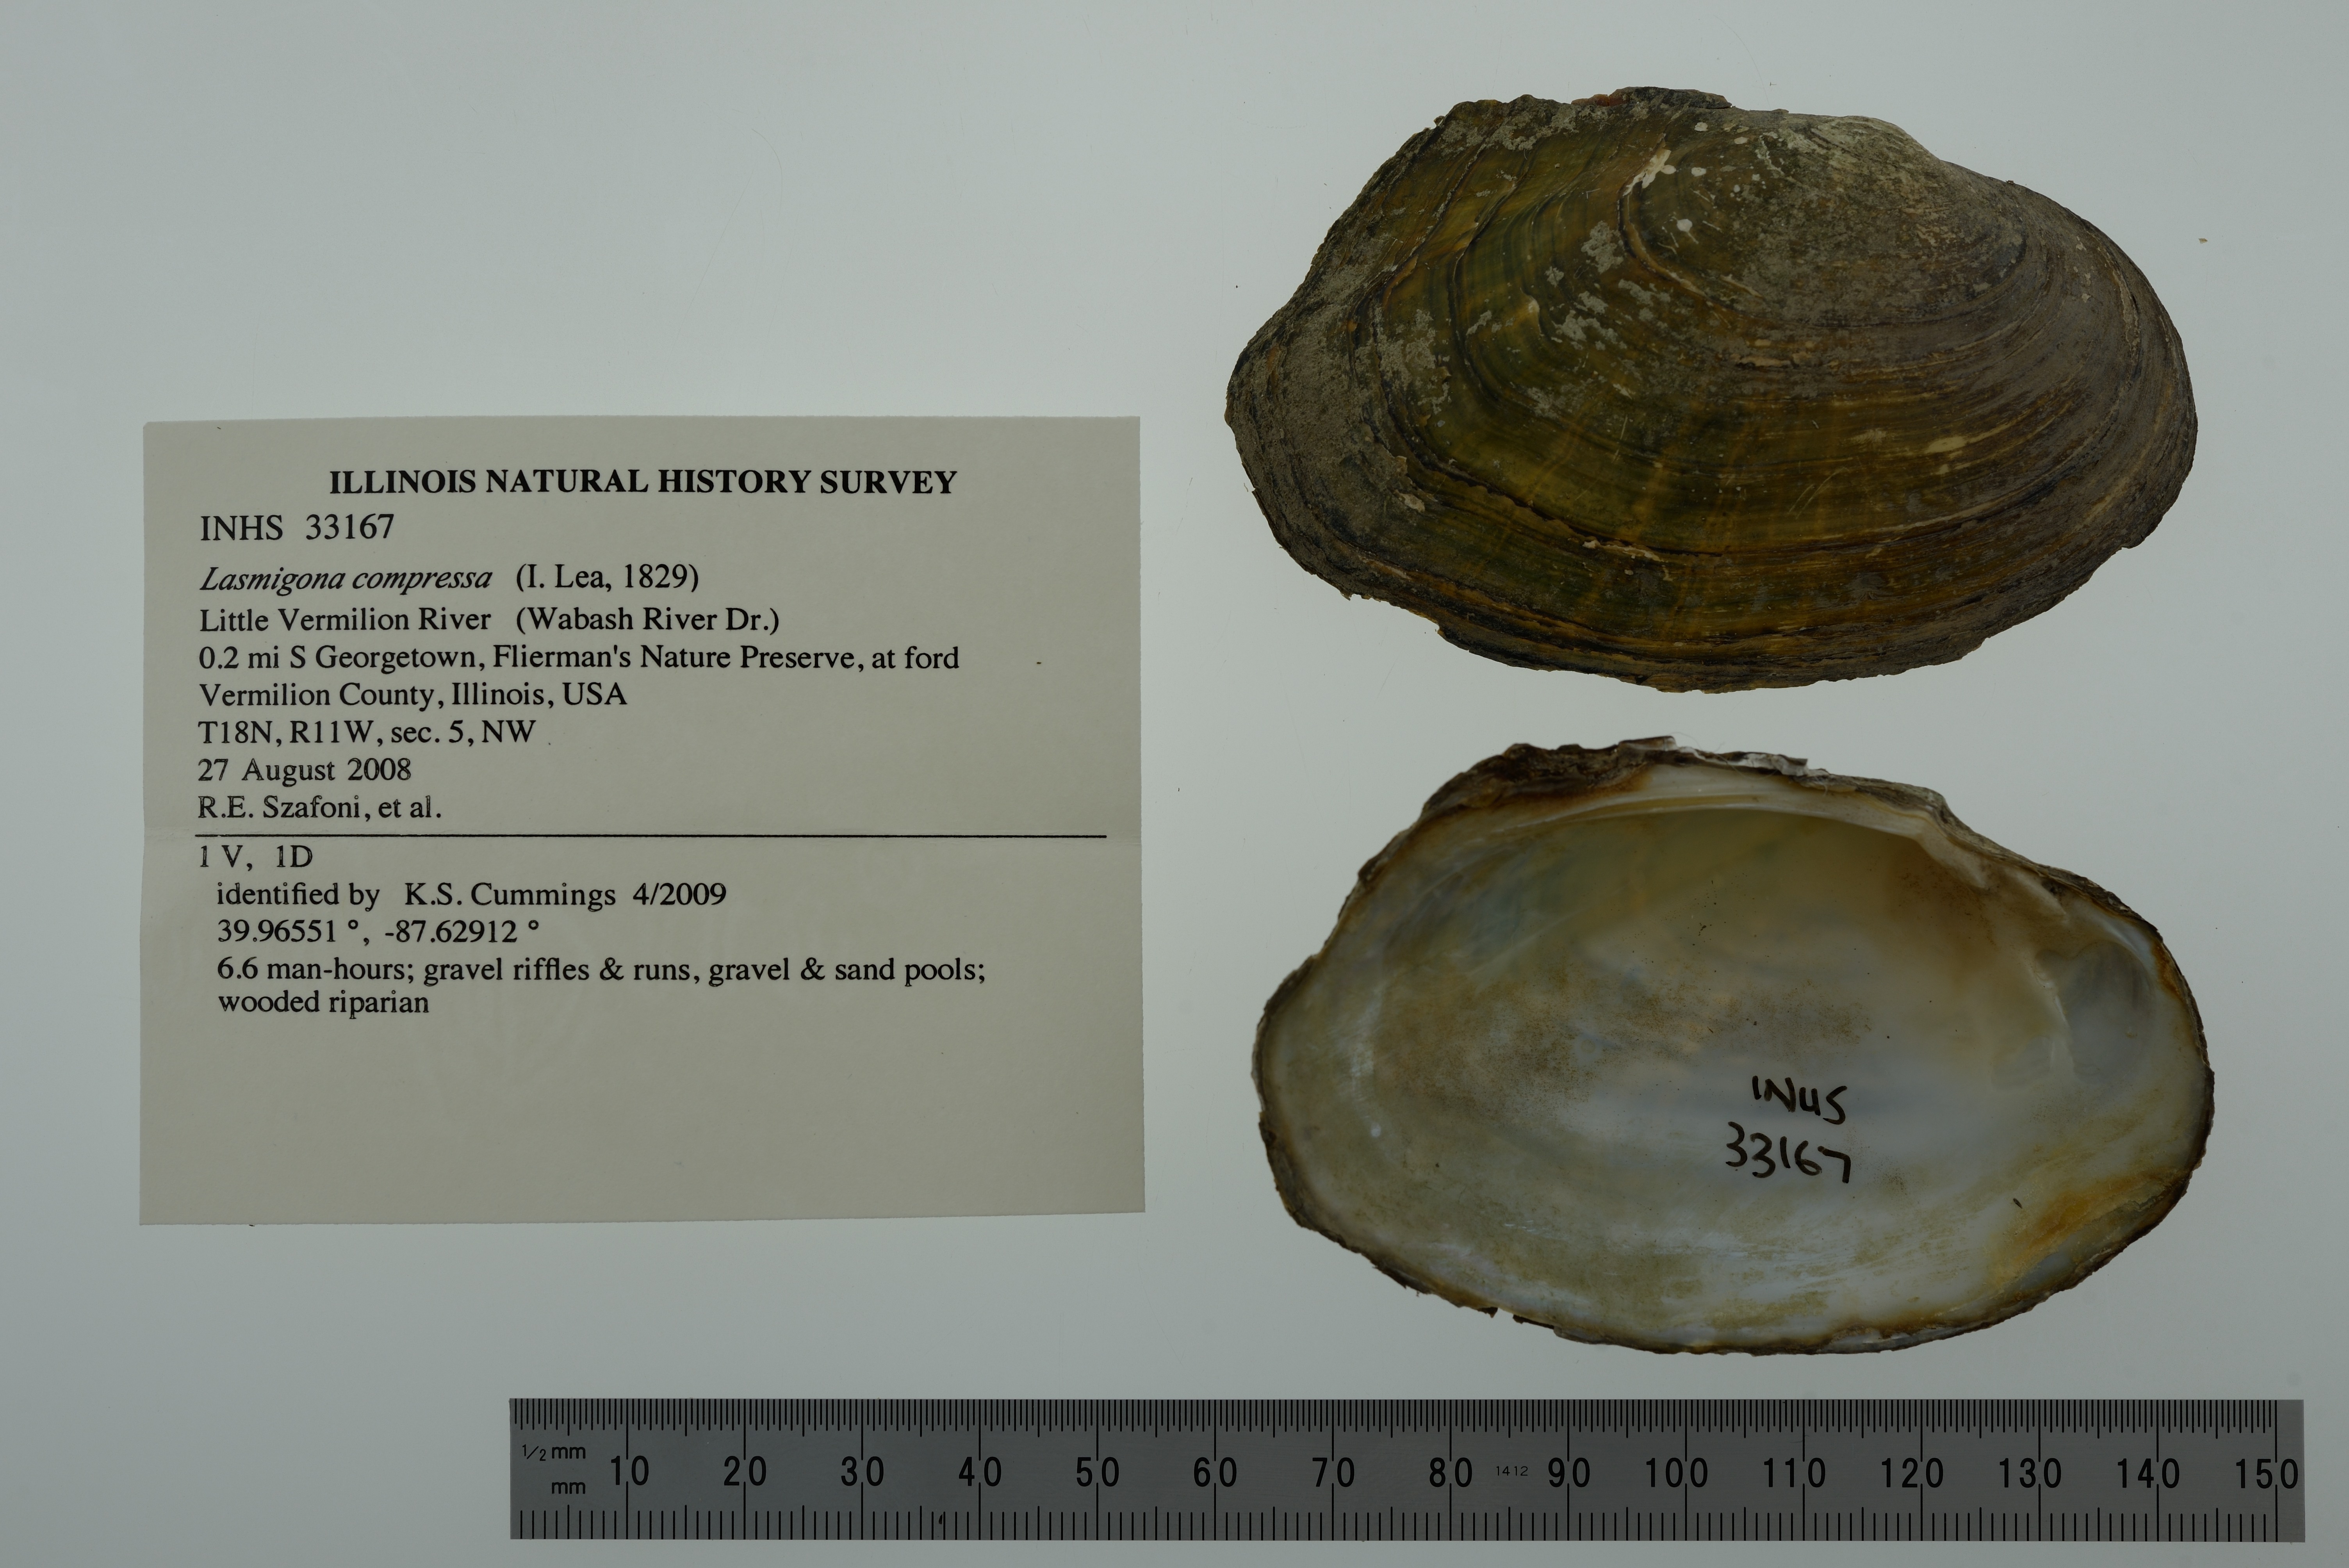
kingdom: Animalia
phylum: Mollusca
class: Bivalvia
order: Unionida
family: Unionidae
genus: Lasmigona
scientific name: Lasmigona compressa
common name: Creek heelsplitter
